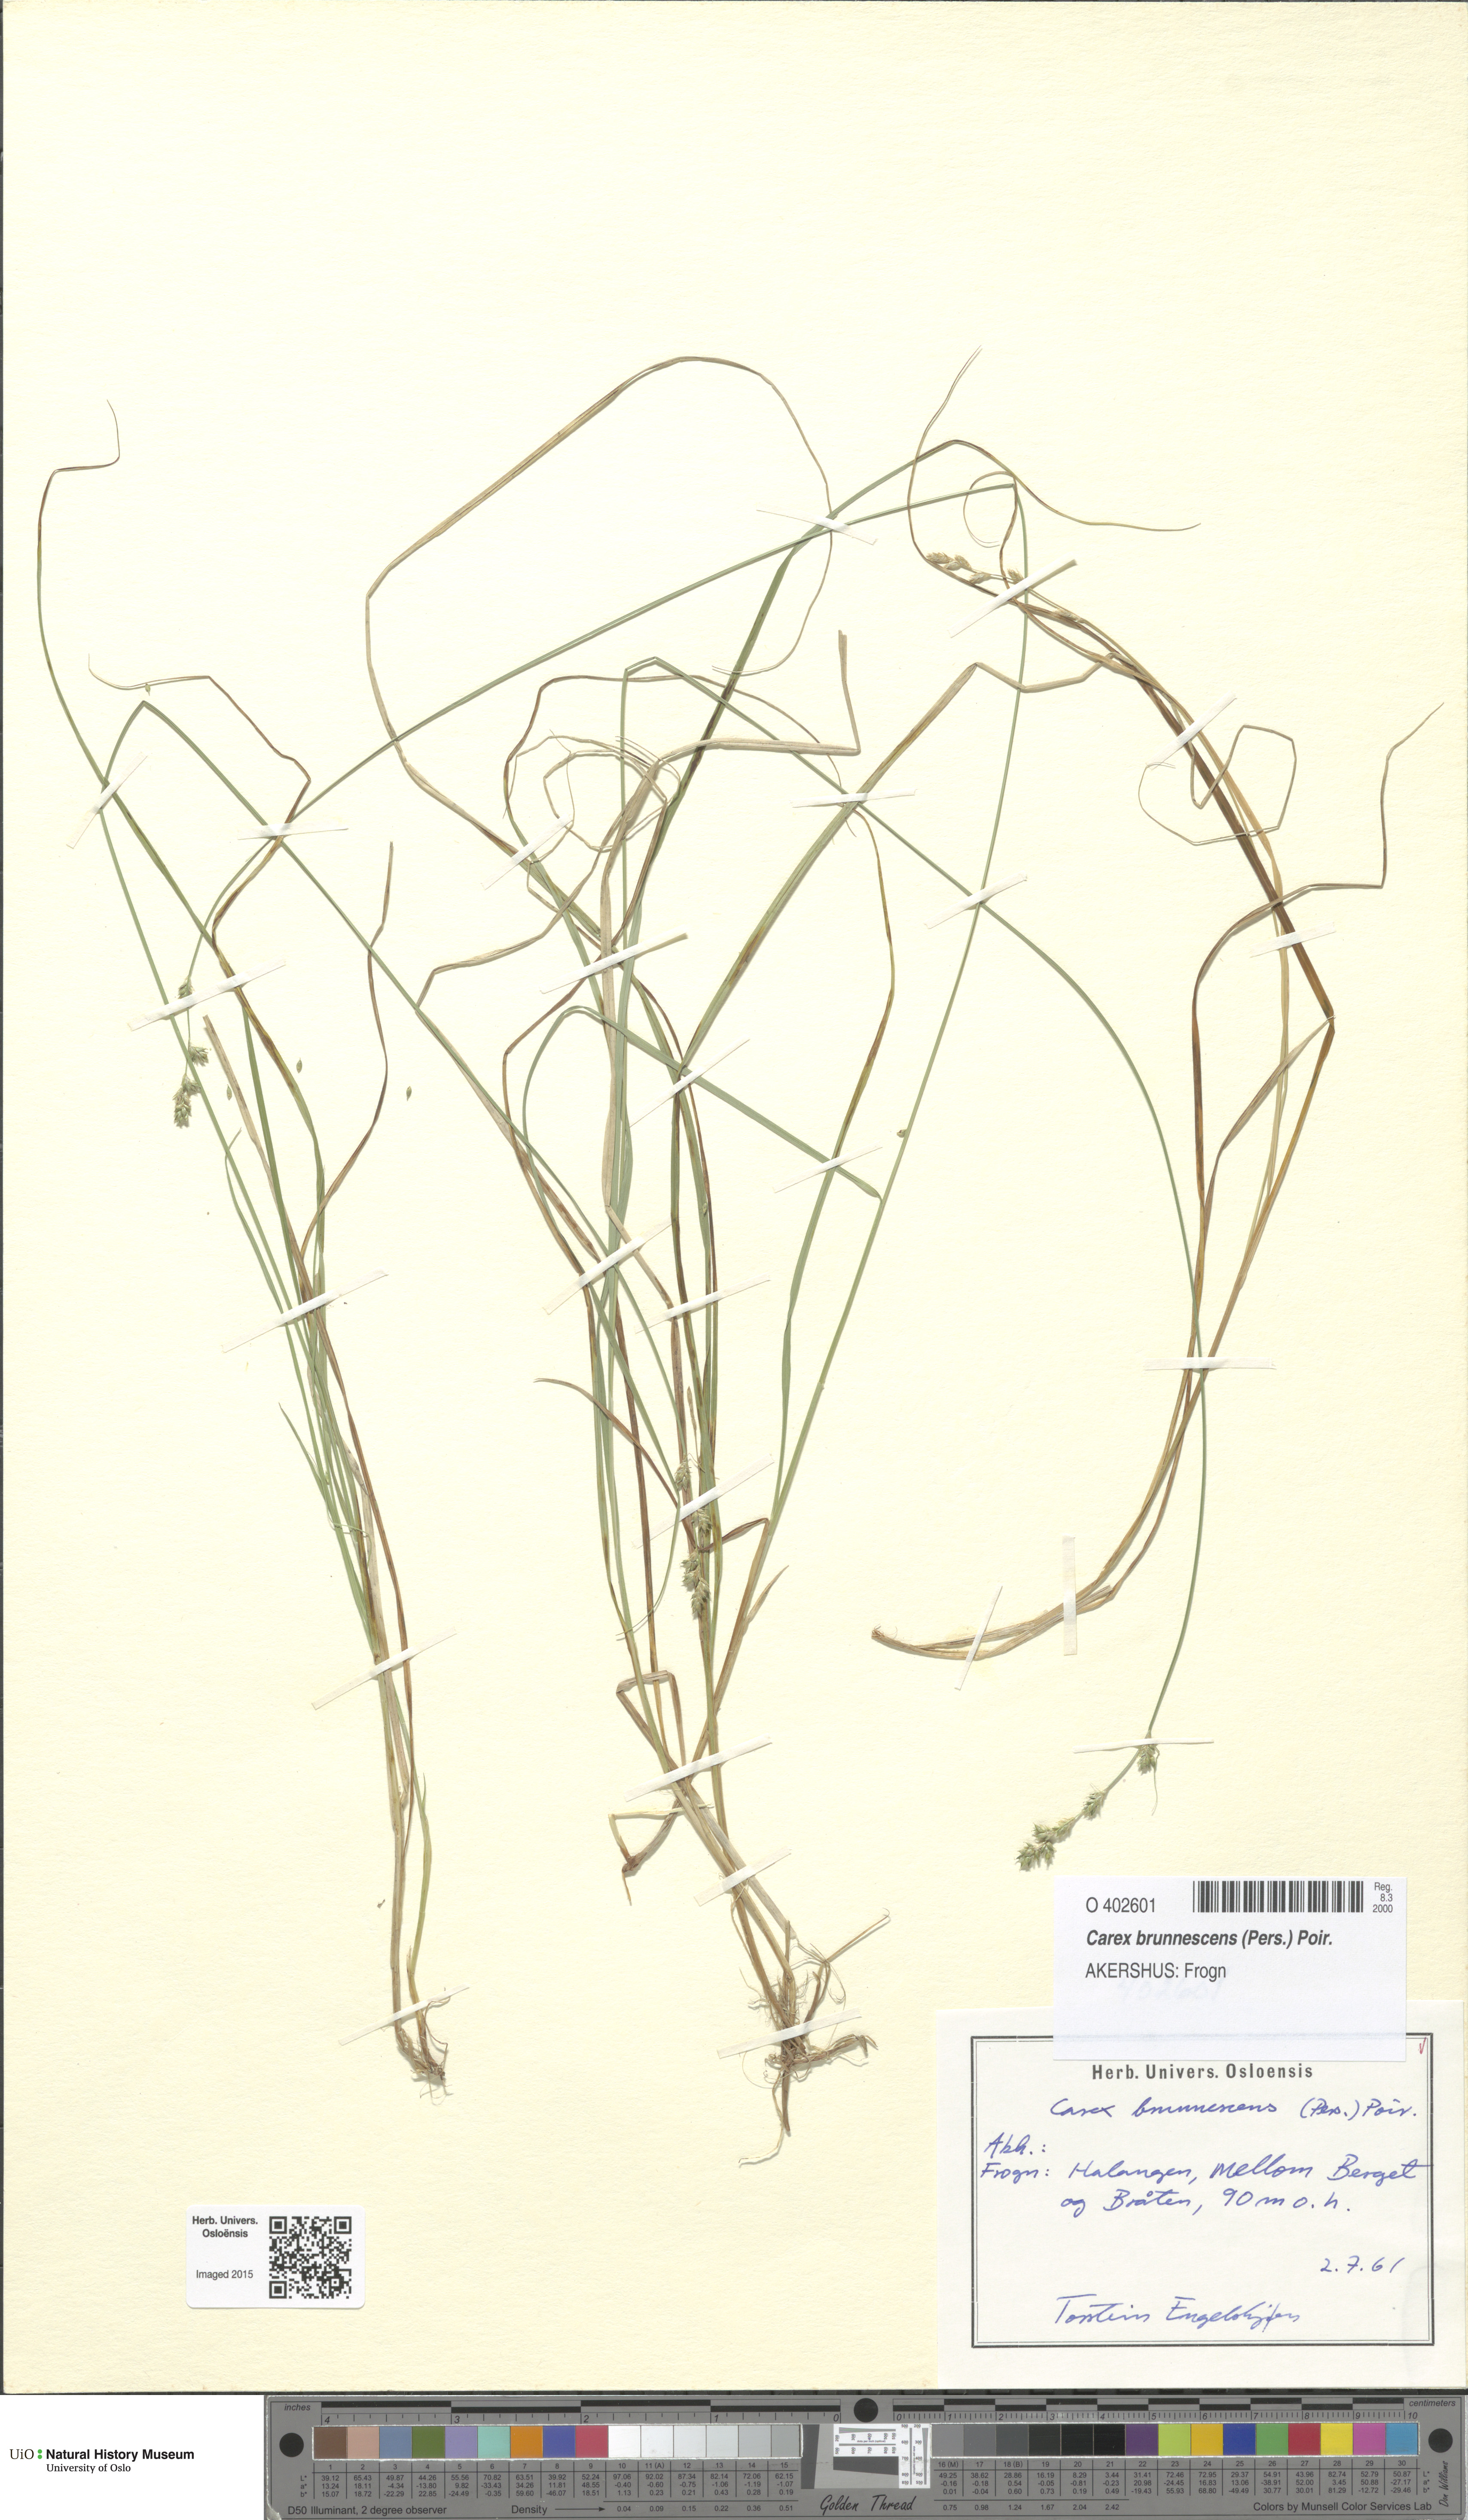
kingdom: Plantae
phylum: Tracheophyta
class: Liliopsida
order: Poales
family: Cyperaceae
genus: Carex
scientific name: Carex brunnescens
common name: Brown sedge
